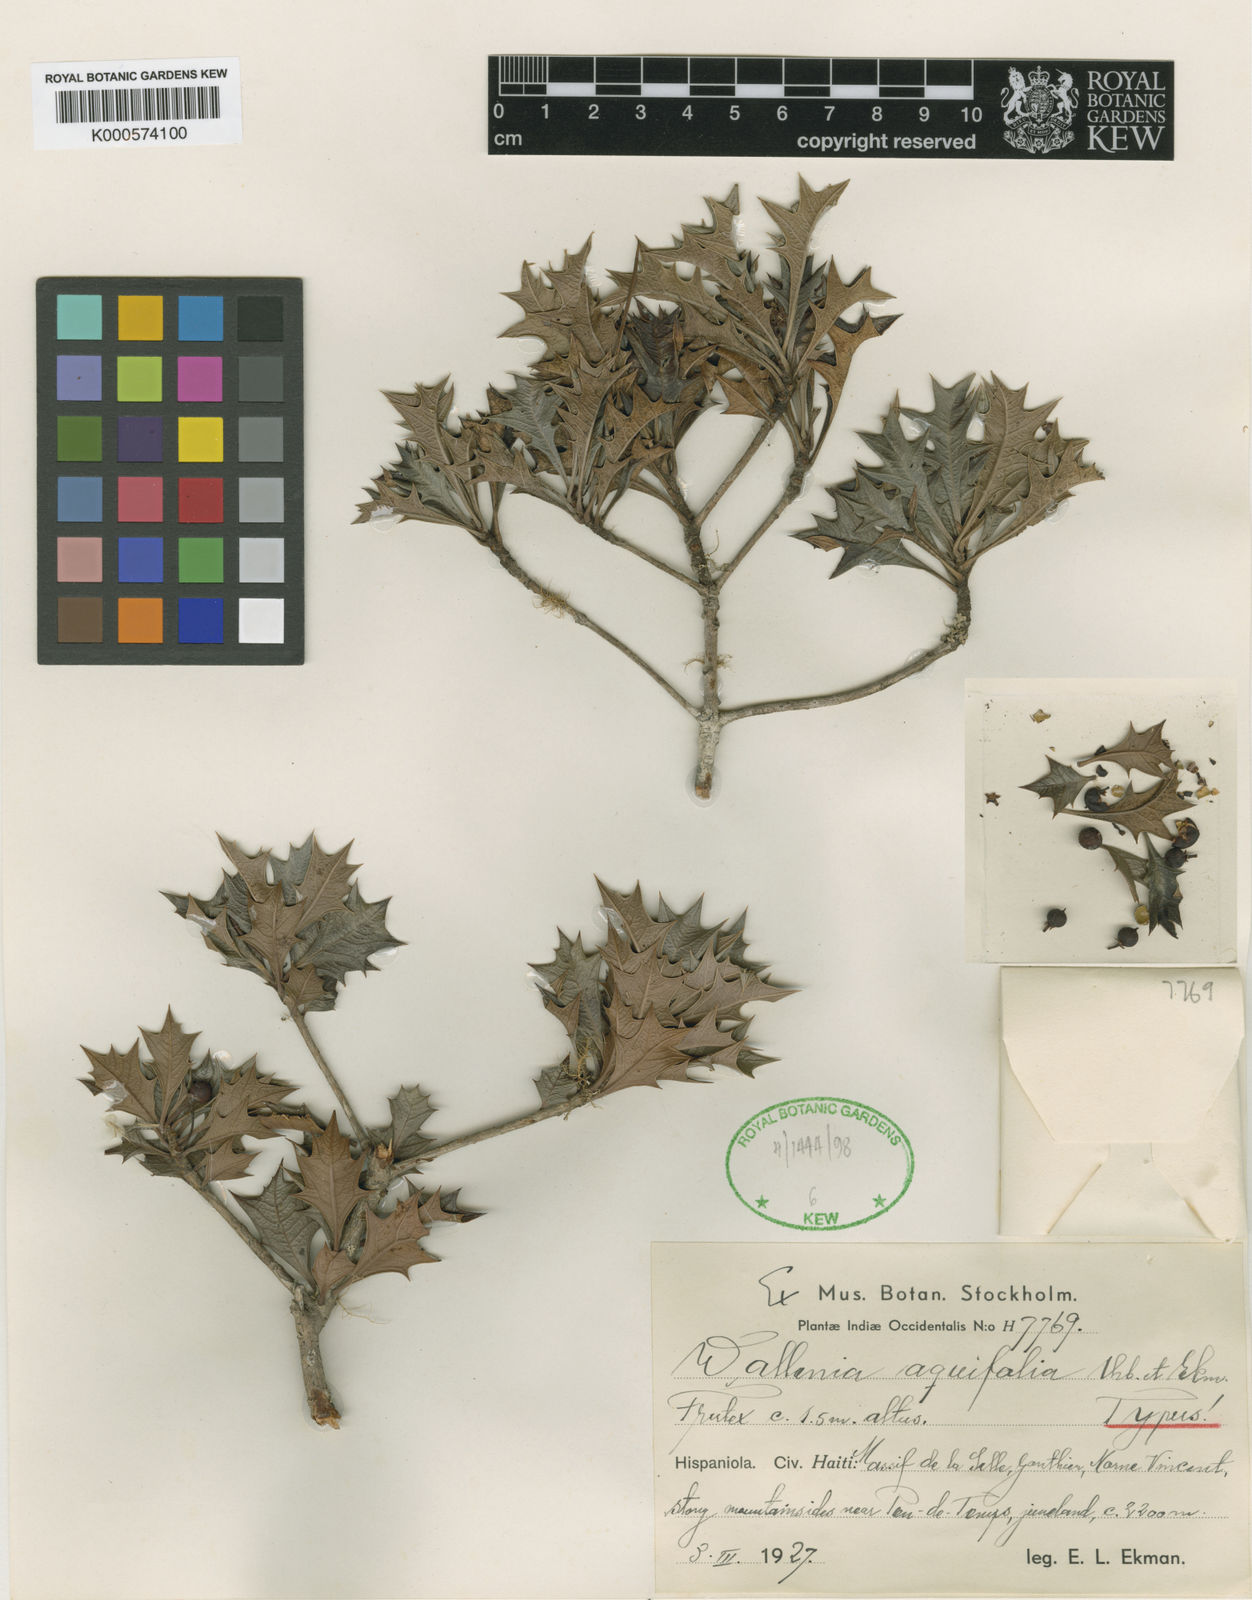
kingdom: Plantae
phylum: Tracheophyta
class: Magnoliopsida
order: Ericales
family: Primulaceae
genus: Wallenia
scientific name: Wallenia aquifolia
